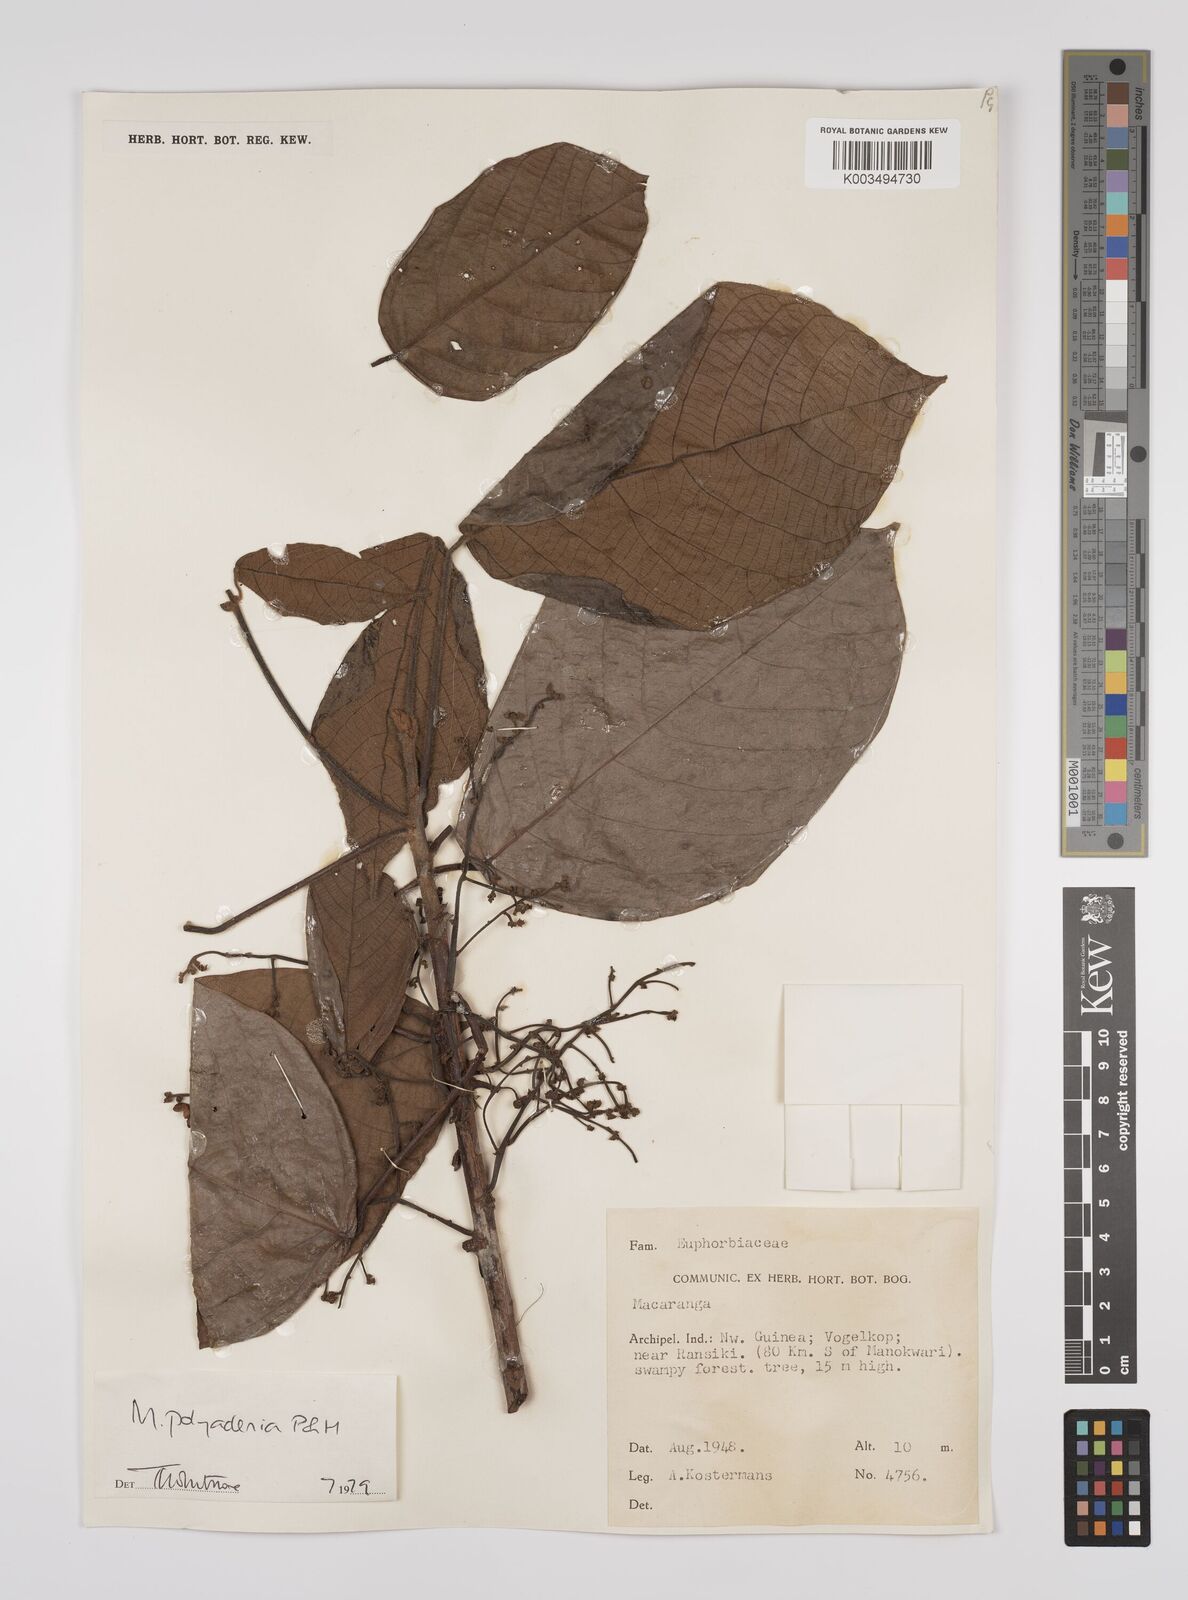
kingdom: Plantae
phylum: Tracheophyta
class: Magnoliopsida
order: Malpighiales
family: Euphorbiaceae
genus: Macaranga
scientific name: Macaranga polyadenia
